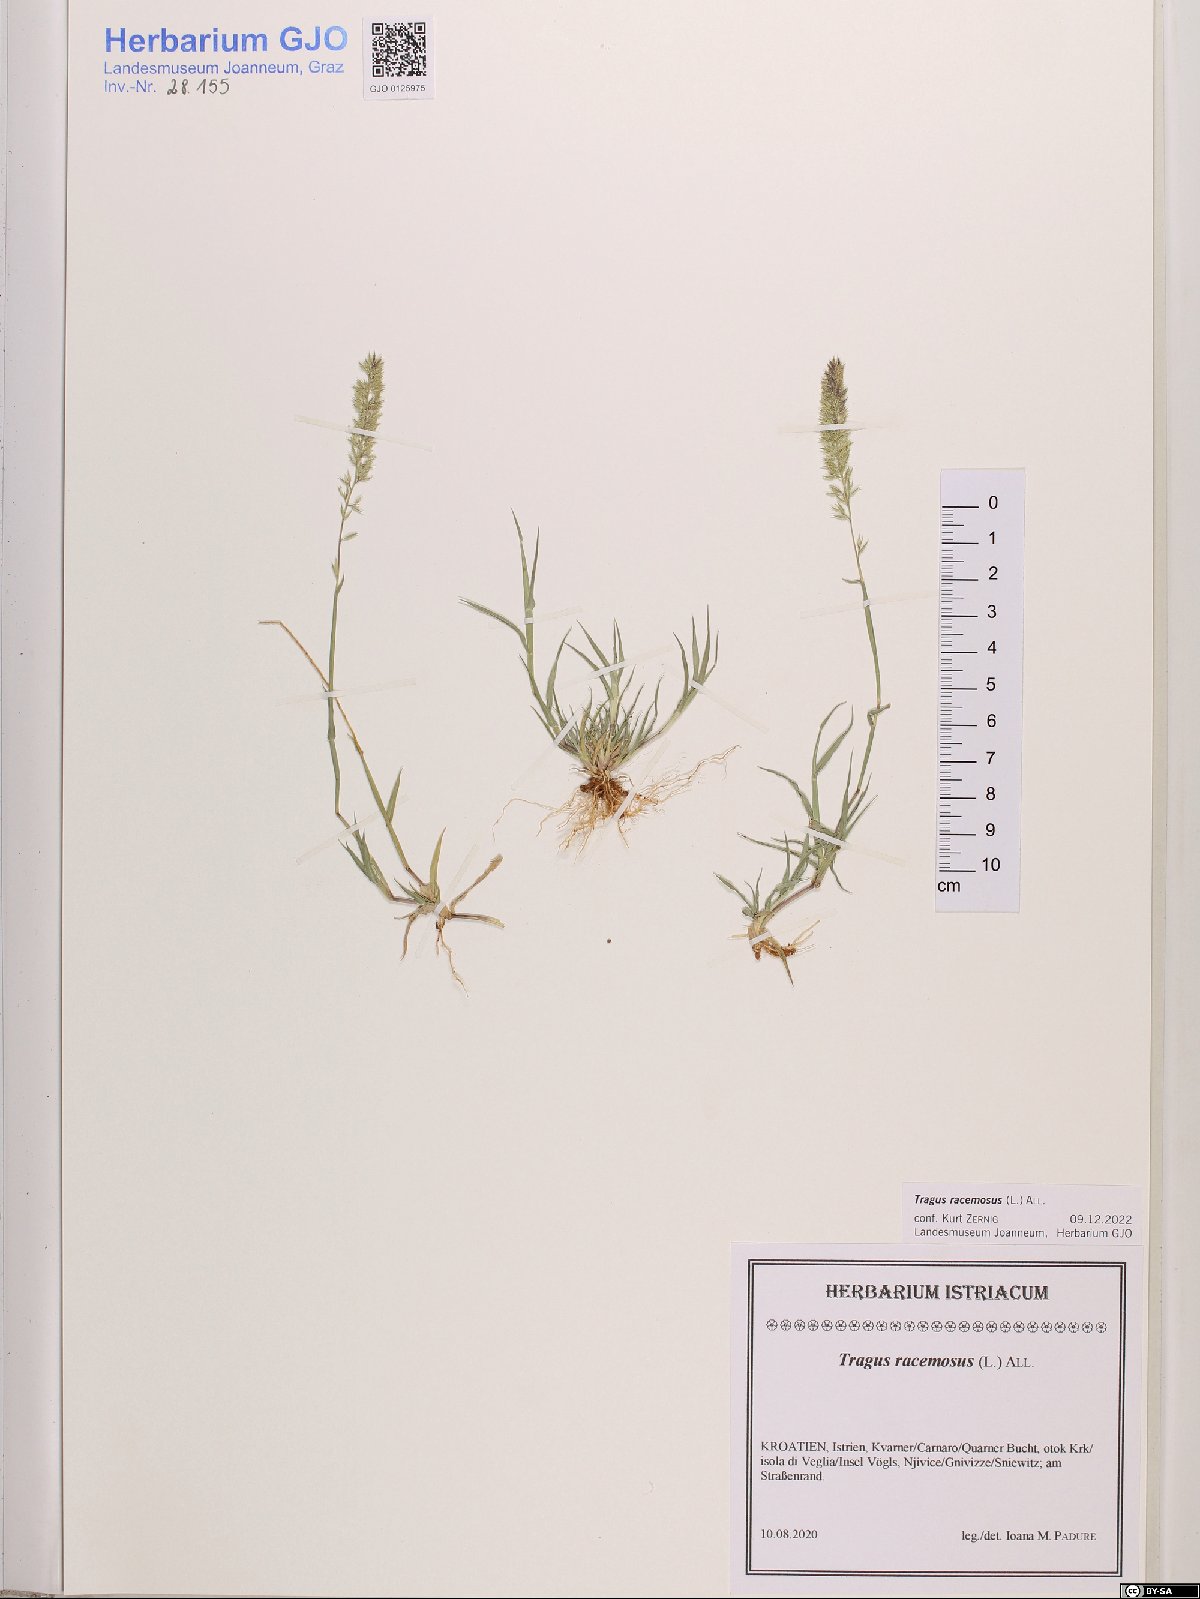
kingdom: Plantae
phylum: Tracheophyta
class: Liliopsida
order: Poales
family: Poaceae
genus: Tragus
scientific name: Tragus racemosus
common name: European bur-grass
